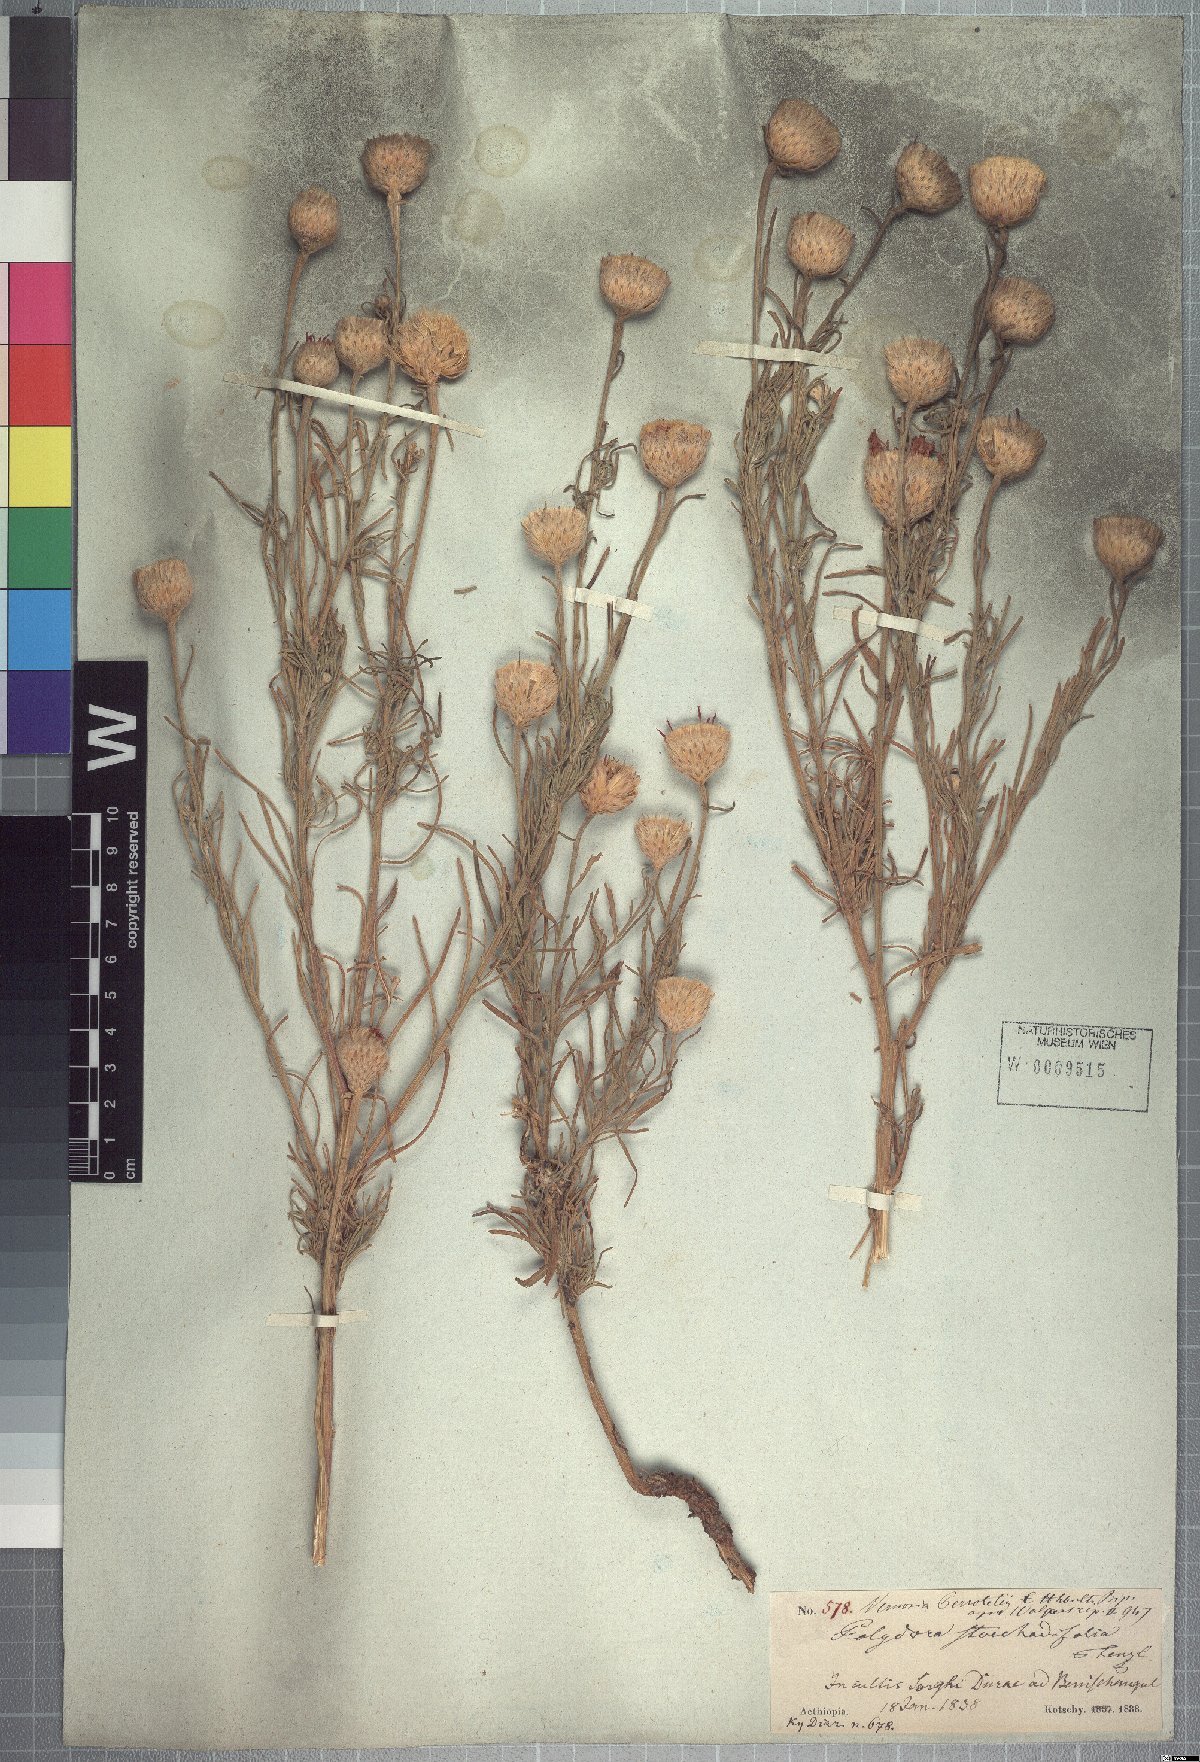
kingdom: Plantae
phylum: Tracheophyta
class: Magnoliopsida
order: Asterales
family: Asteraceae
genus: Crystallopollen
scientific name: Crystallopollen serratuloides
